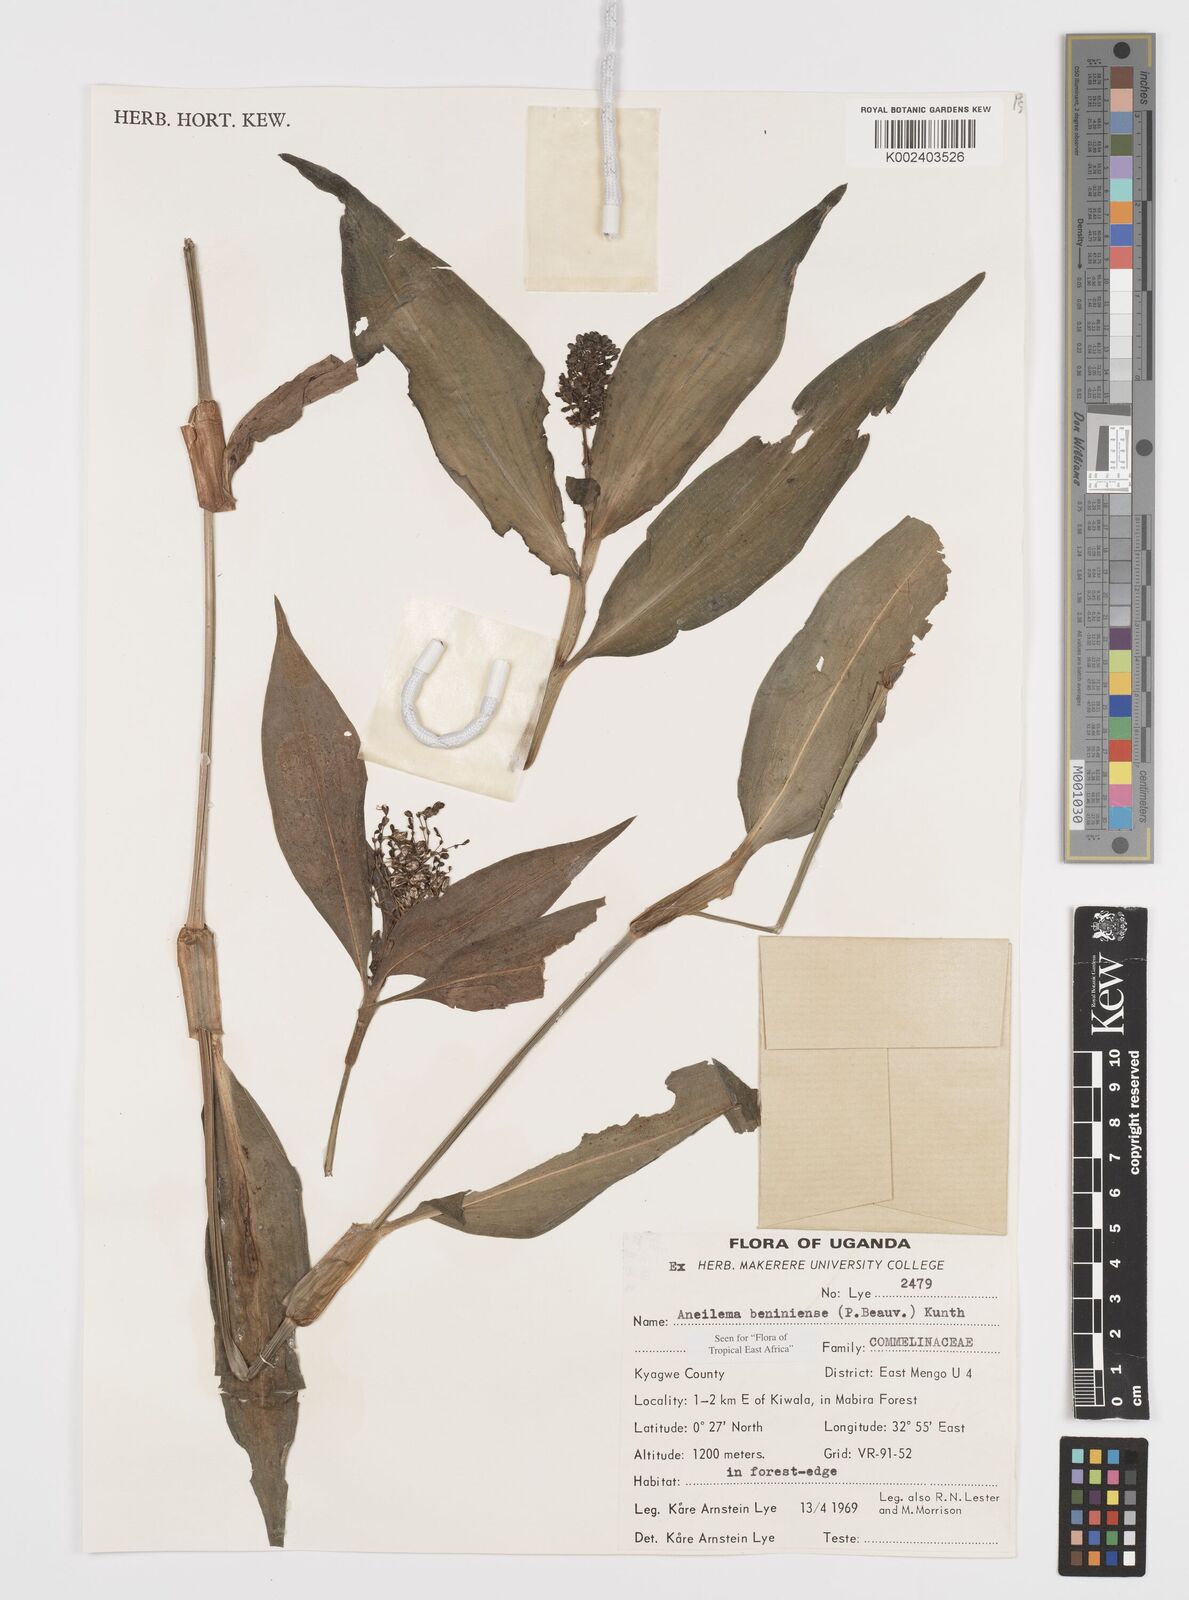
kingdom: Plantae
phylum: Tracheophyta
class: Liliopsida
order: Commelinales
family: Commelinaceae
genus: Aneilema
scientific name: Aneilema beniniense
